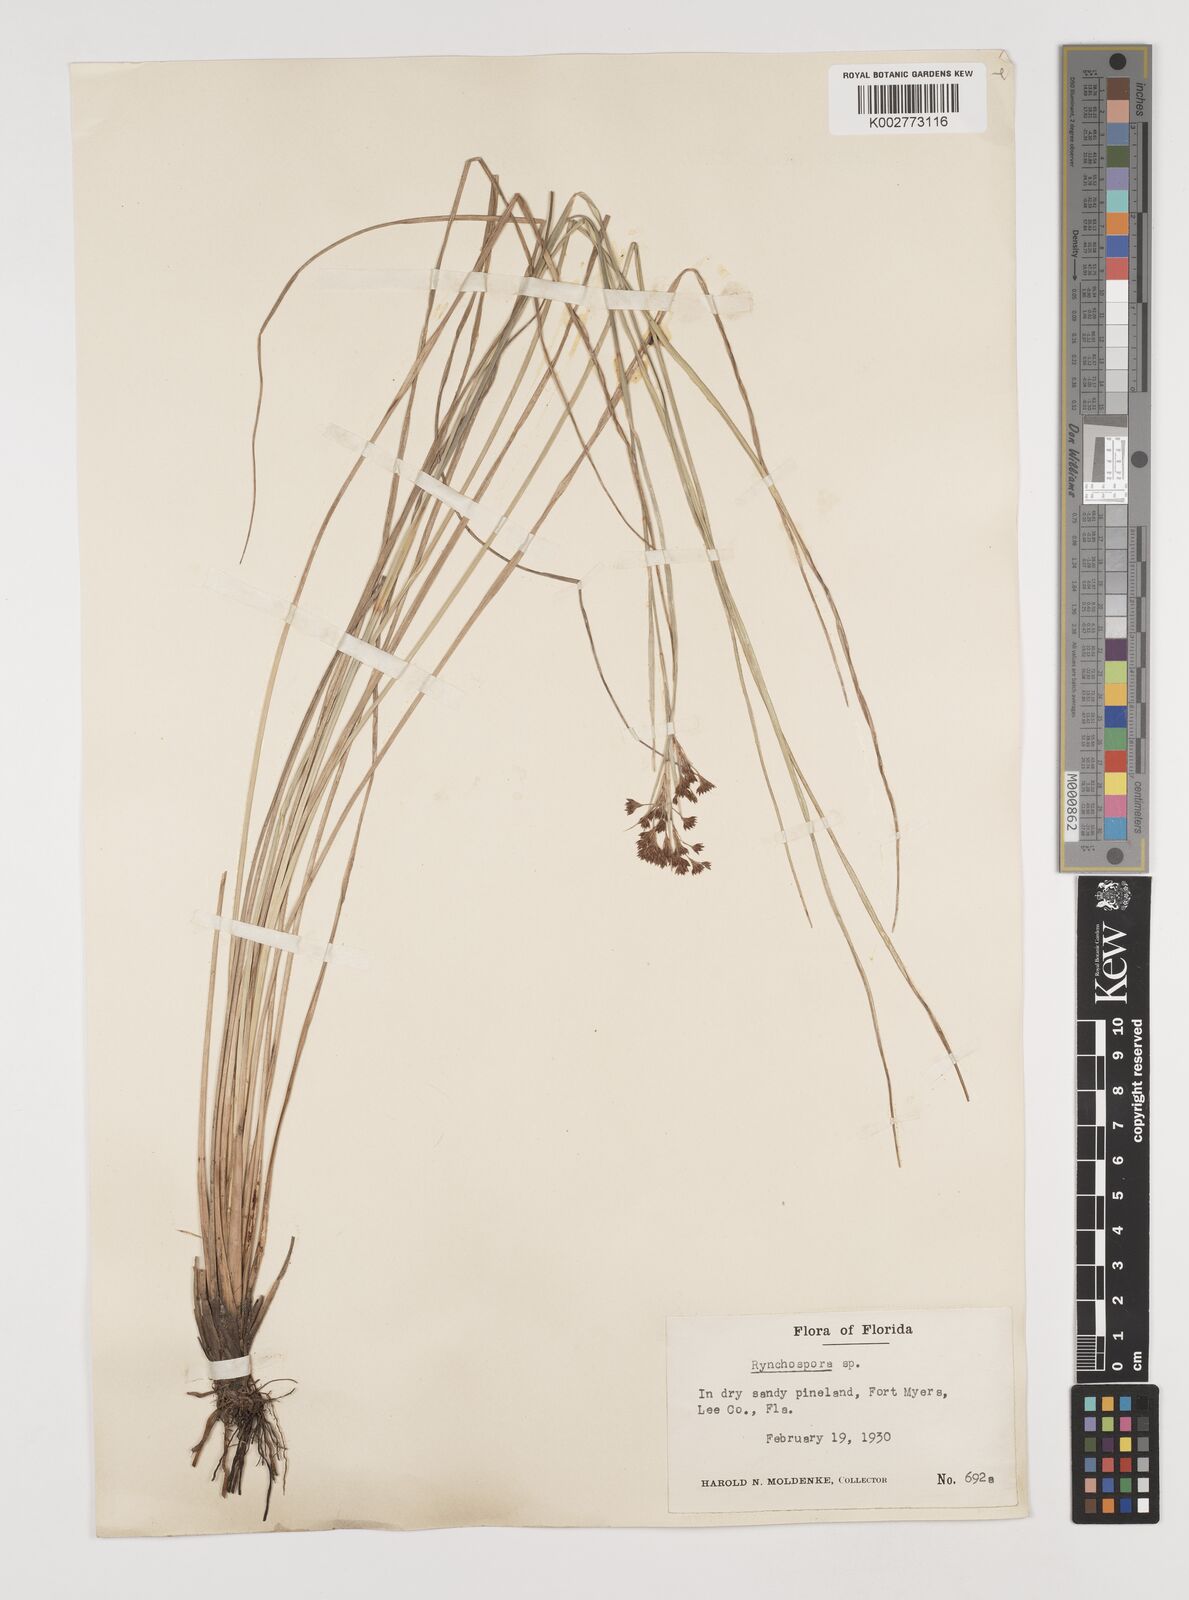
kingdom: Plantae
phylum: Tracheophyta
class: Liliopsida
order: Poales
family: Cyperaceae
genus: Rhynchospora
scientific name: Rhynchospora
